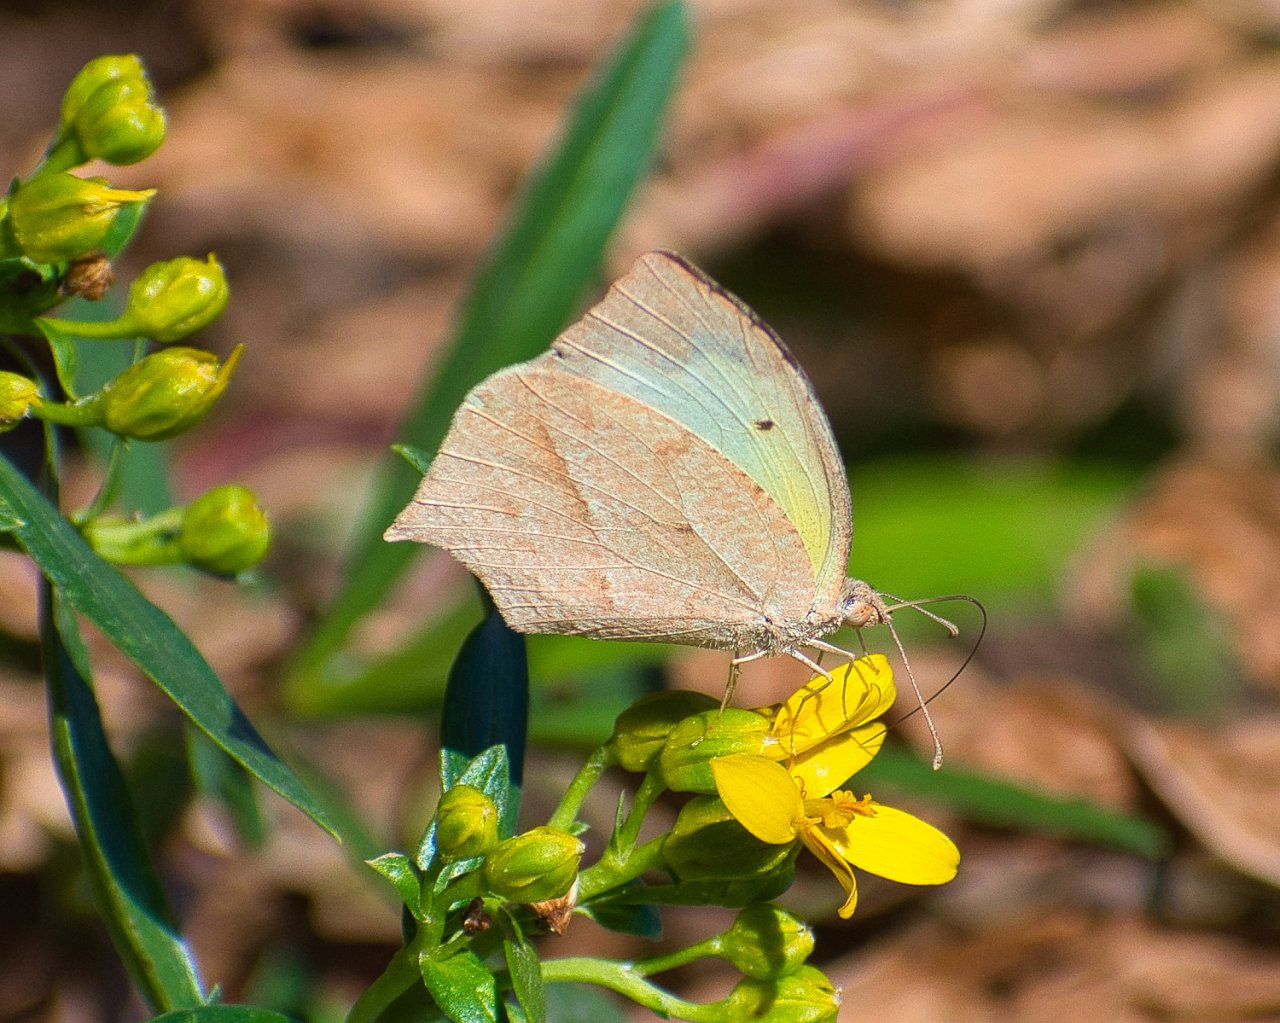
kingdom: Animalia
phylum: Arthropoda
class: Insecta
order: Lepidoptera
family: Pieridae
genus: Eurema
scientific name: Eurema mexicana
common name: Mexican Yellow
